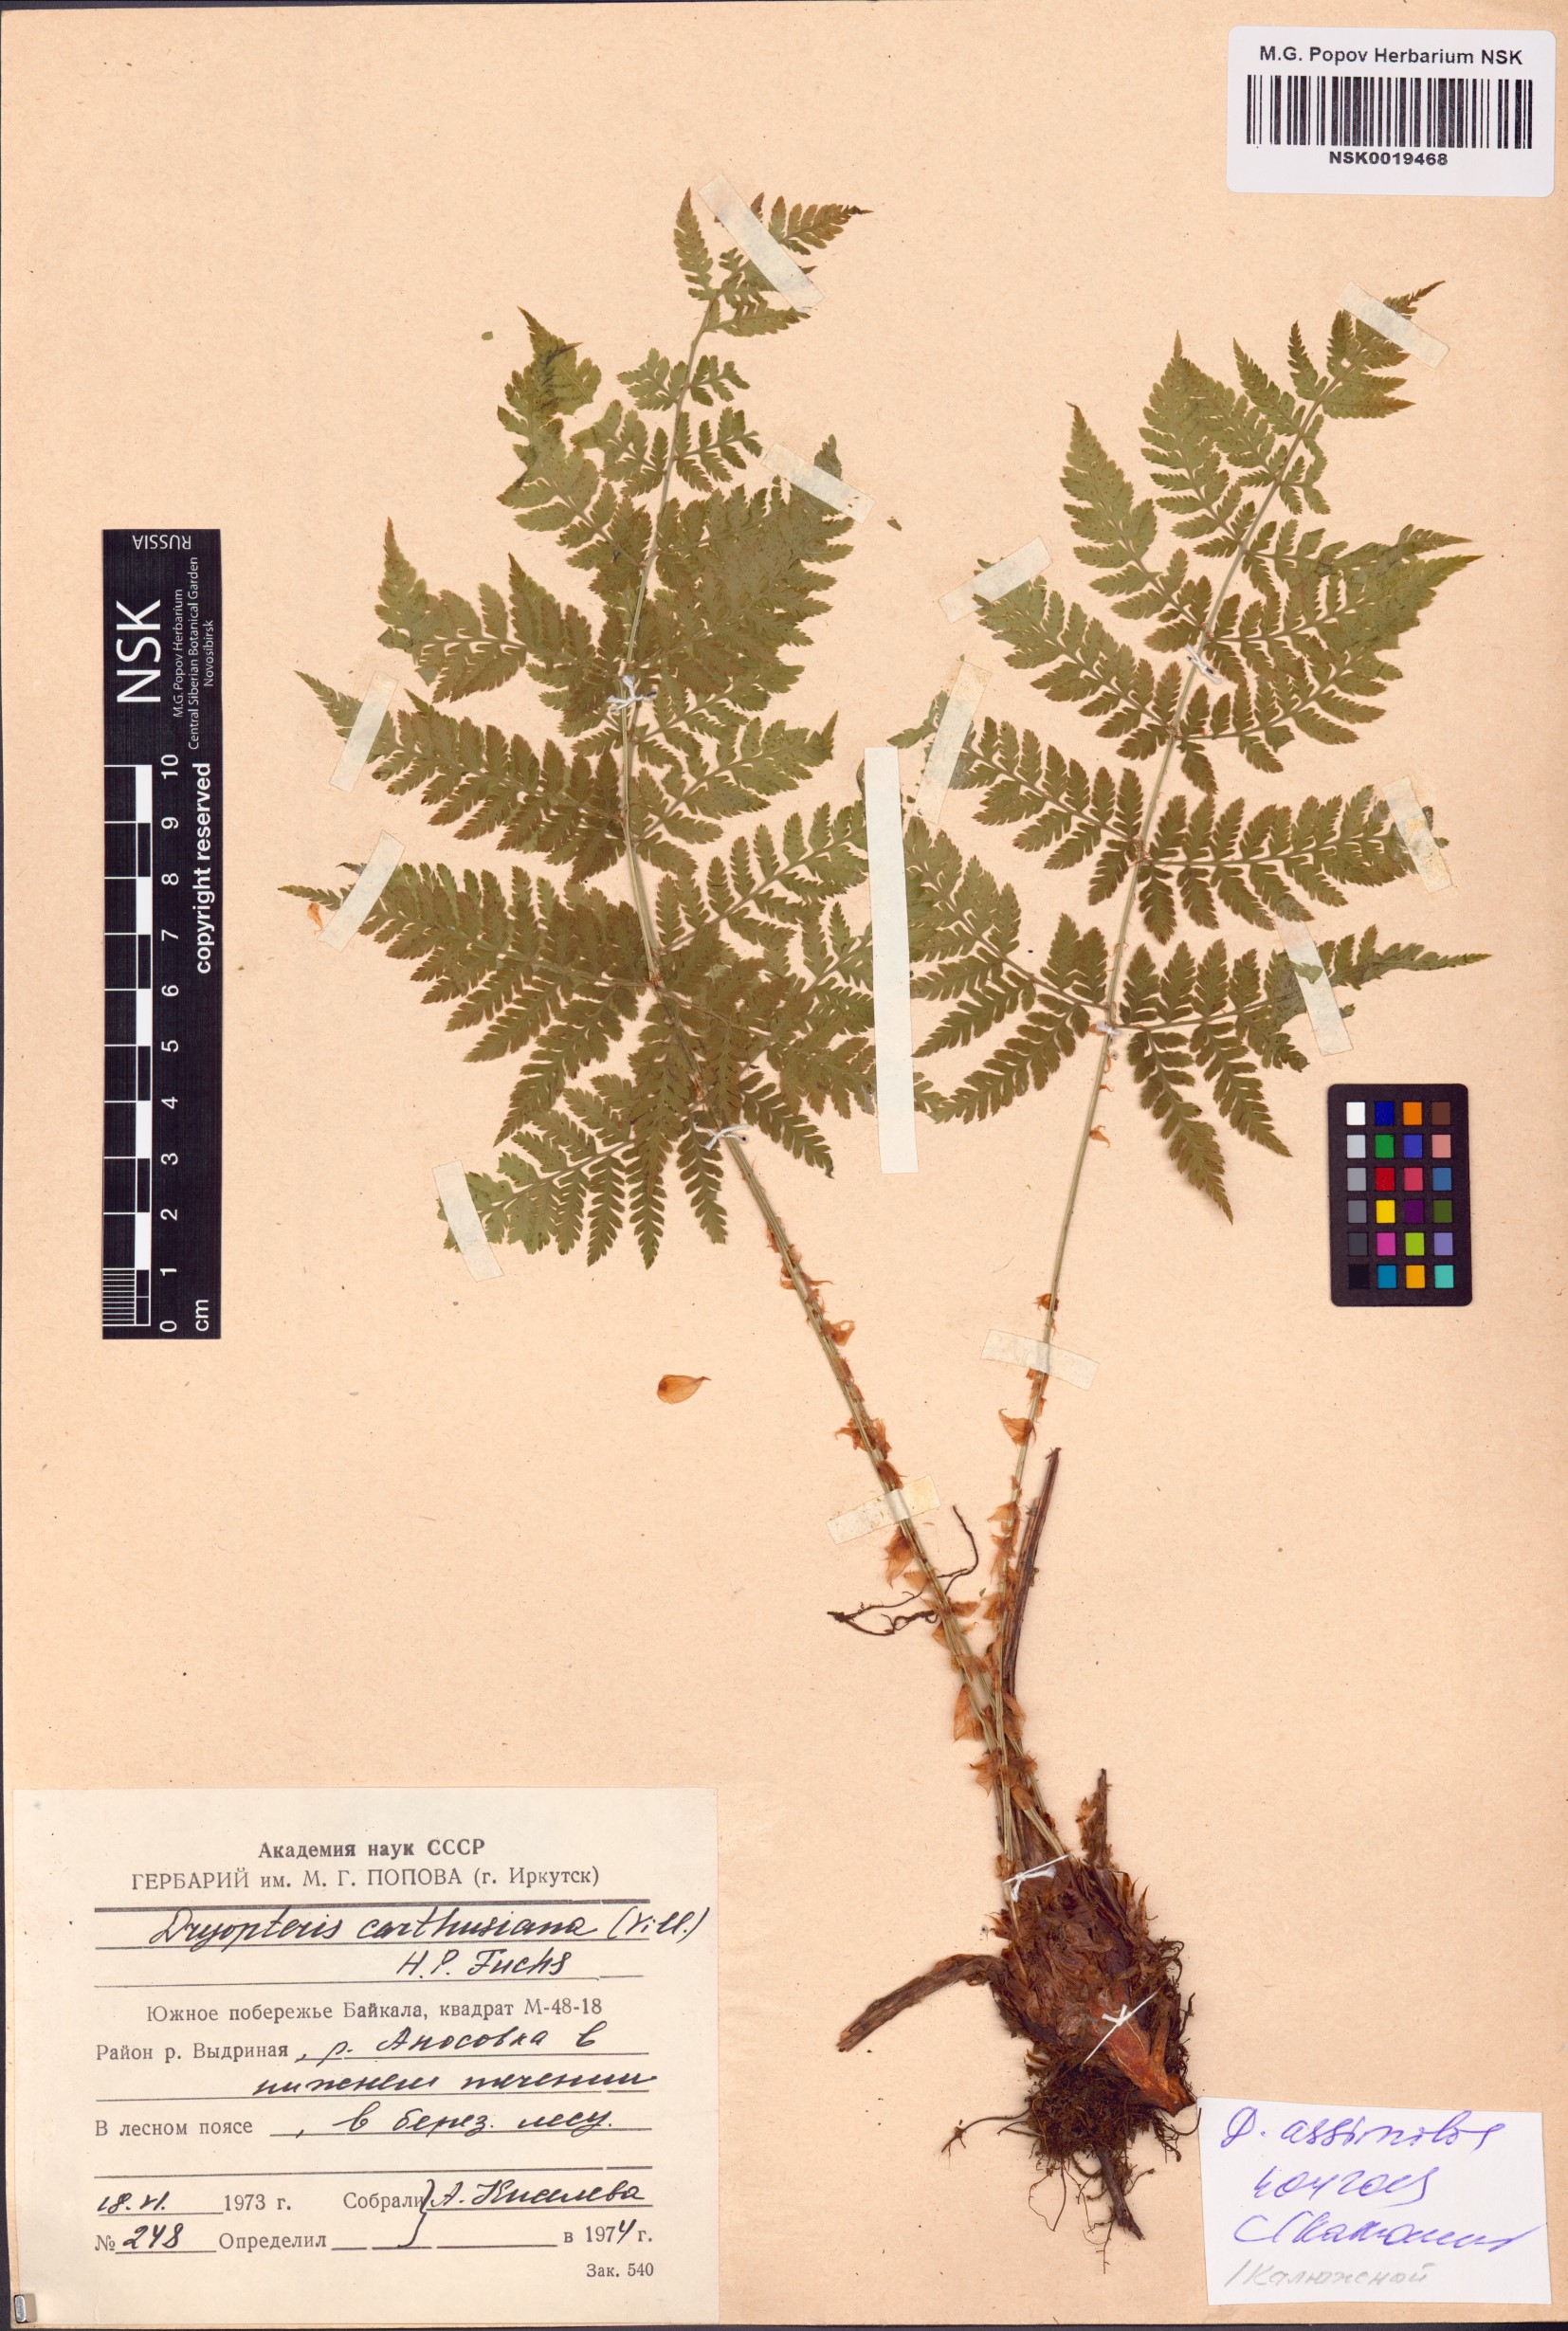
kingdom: Plantae
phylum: Tracheophyta
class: Polypodiopsida
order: Polypodiales
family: Dryopteridaceae
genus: Dryopteris
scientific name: Dryopteris expansa
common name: Northern buckler fern
